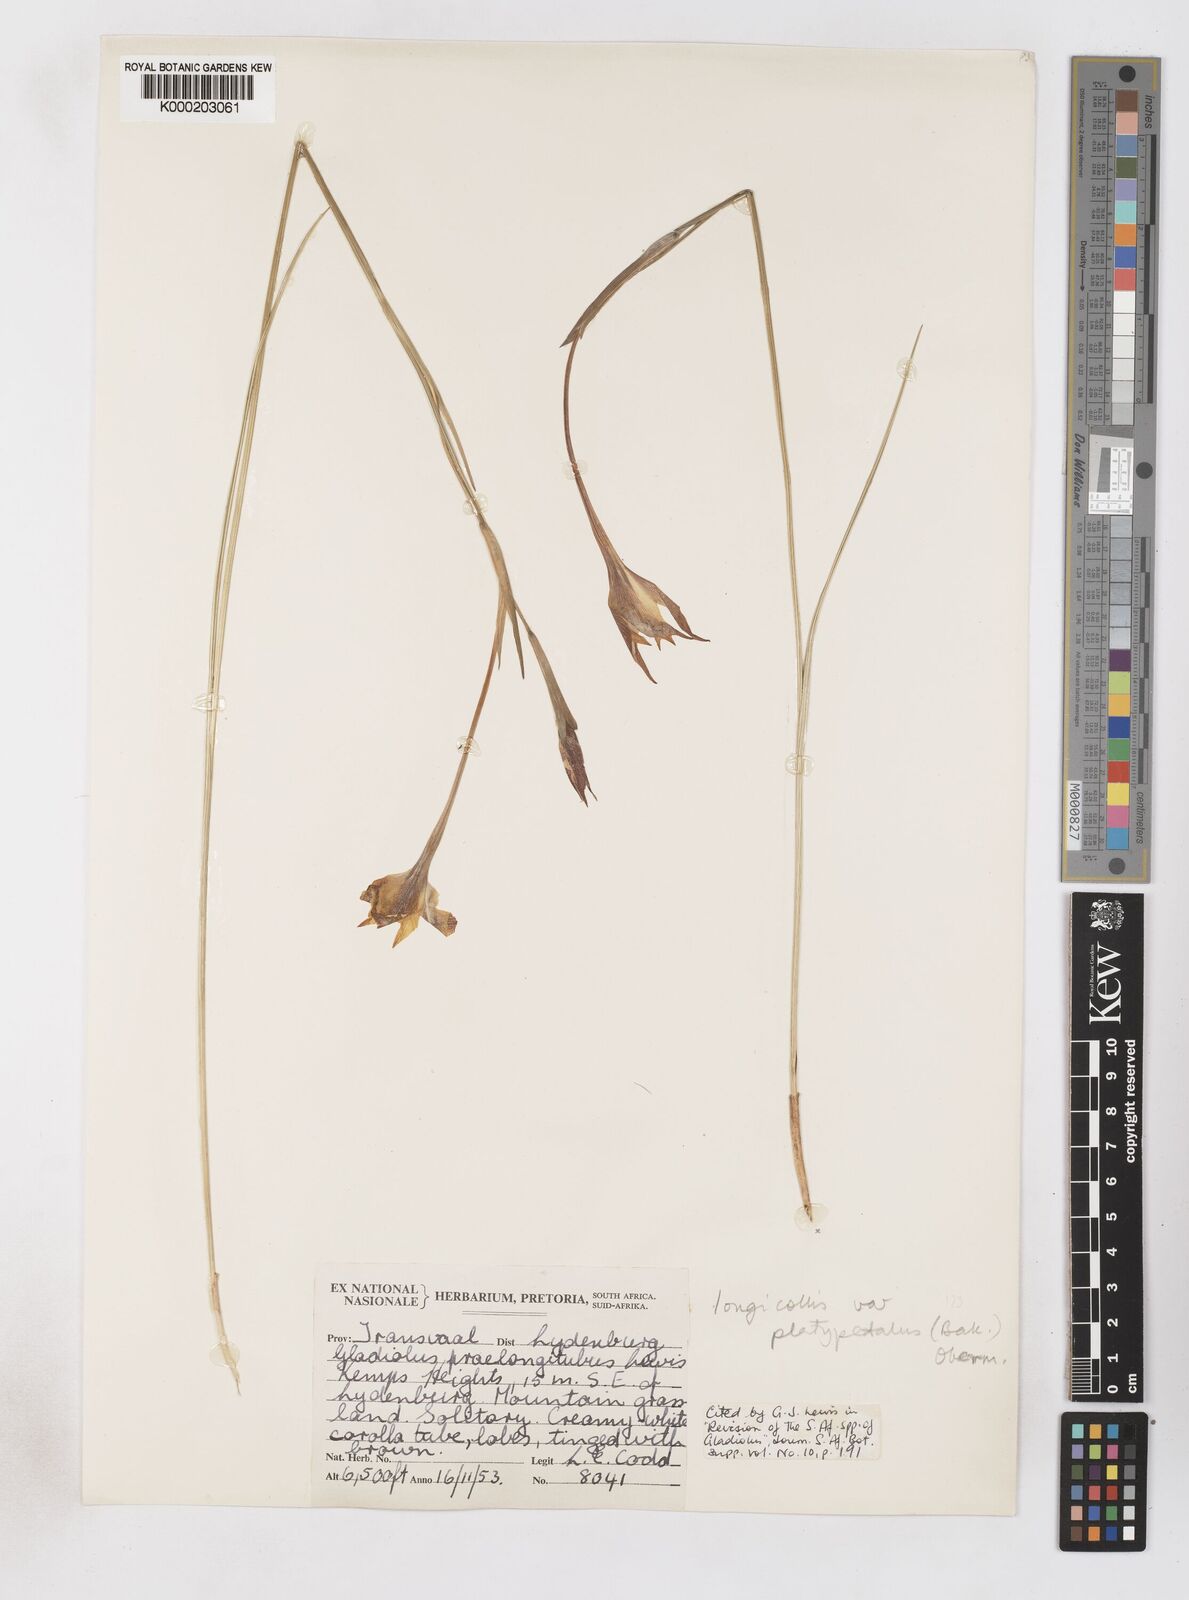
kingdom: Plantae
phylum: Tracheophyta
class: Liliopsida
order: Asparagales
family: Iridaceae
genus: Gladiolus
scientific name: Gladiolus longicollis
